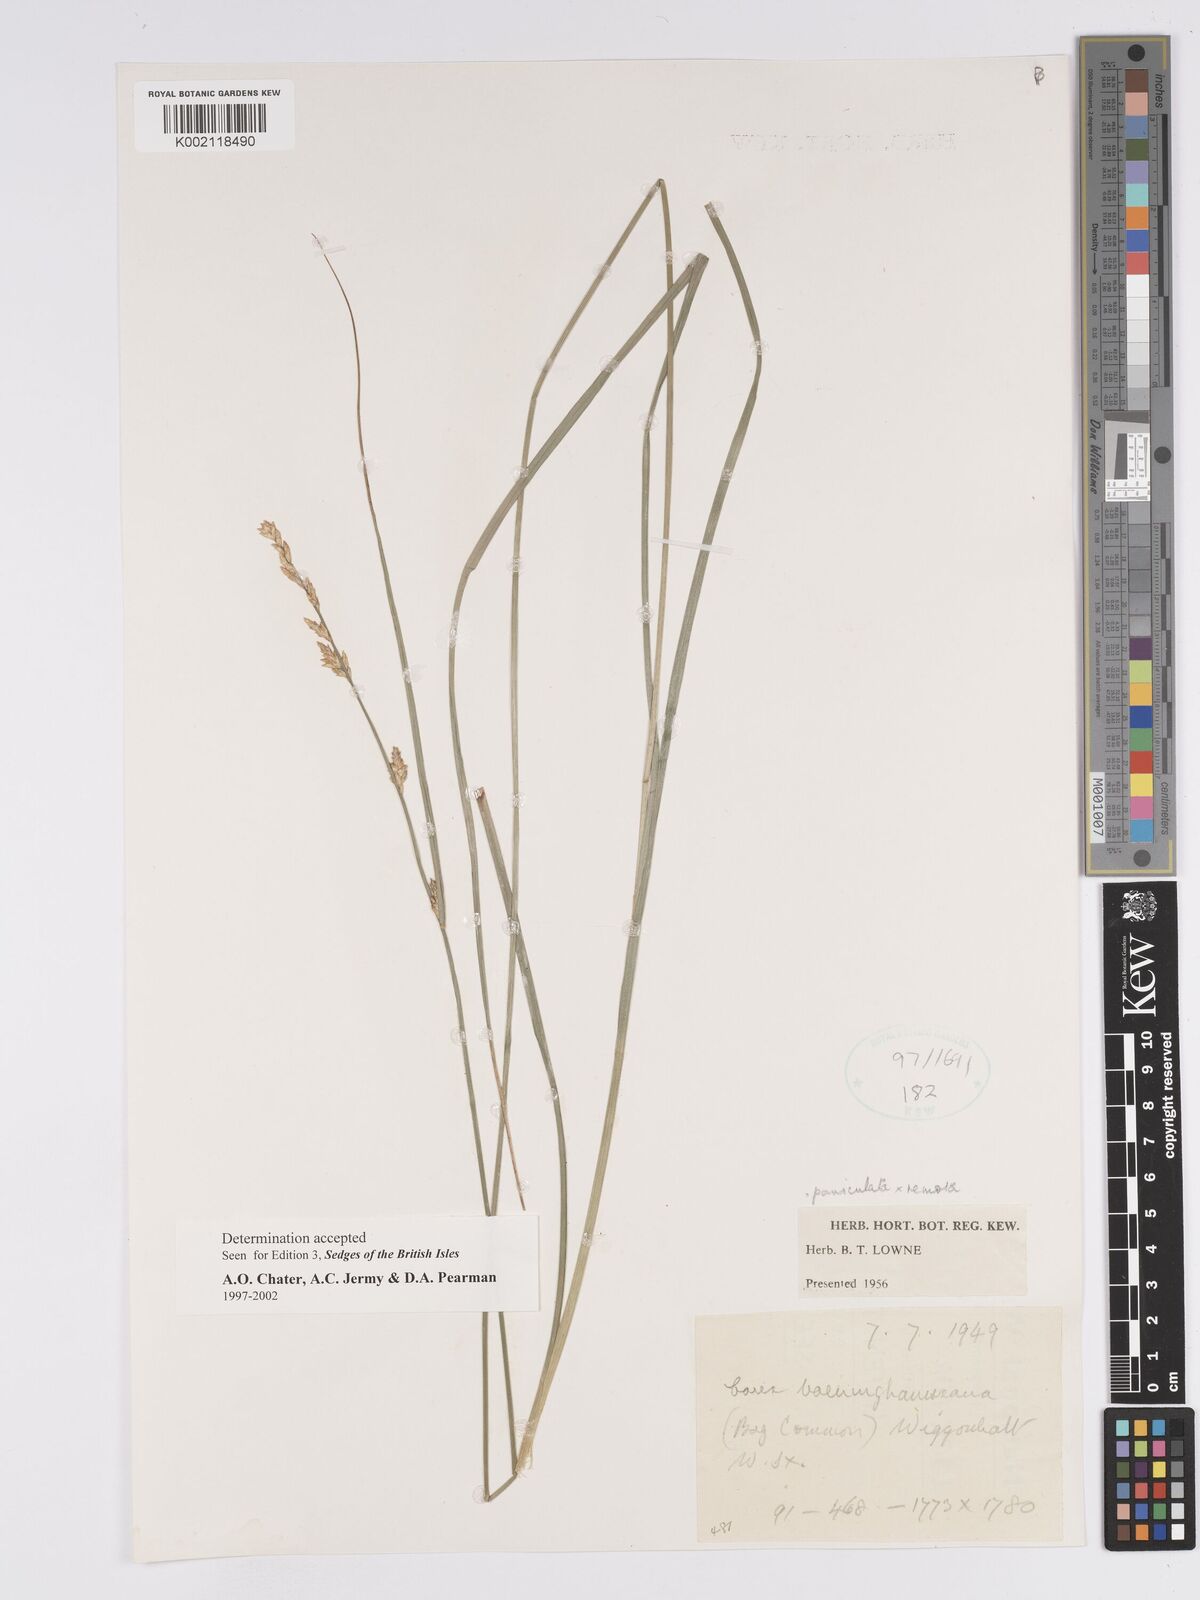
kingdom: Plantae
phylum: Tracheophyta
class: Liliopsida
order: Poales
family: Cyperaceae
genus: Carex
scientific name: Carex boenninghausiana
